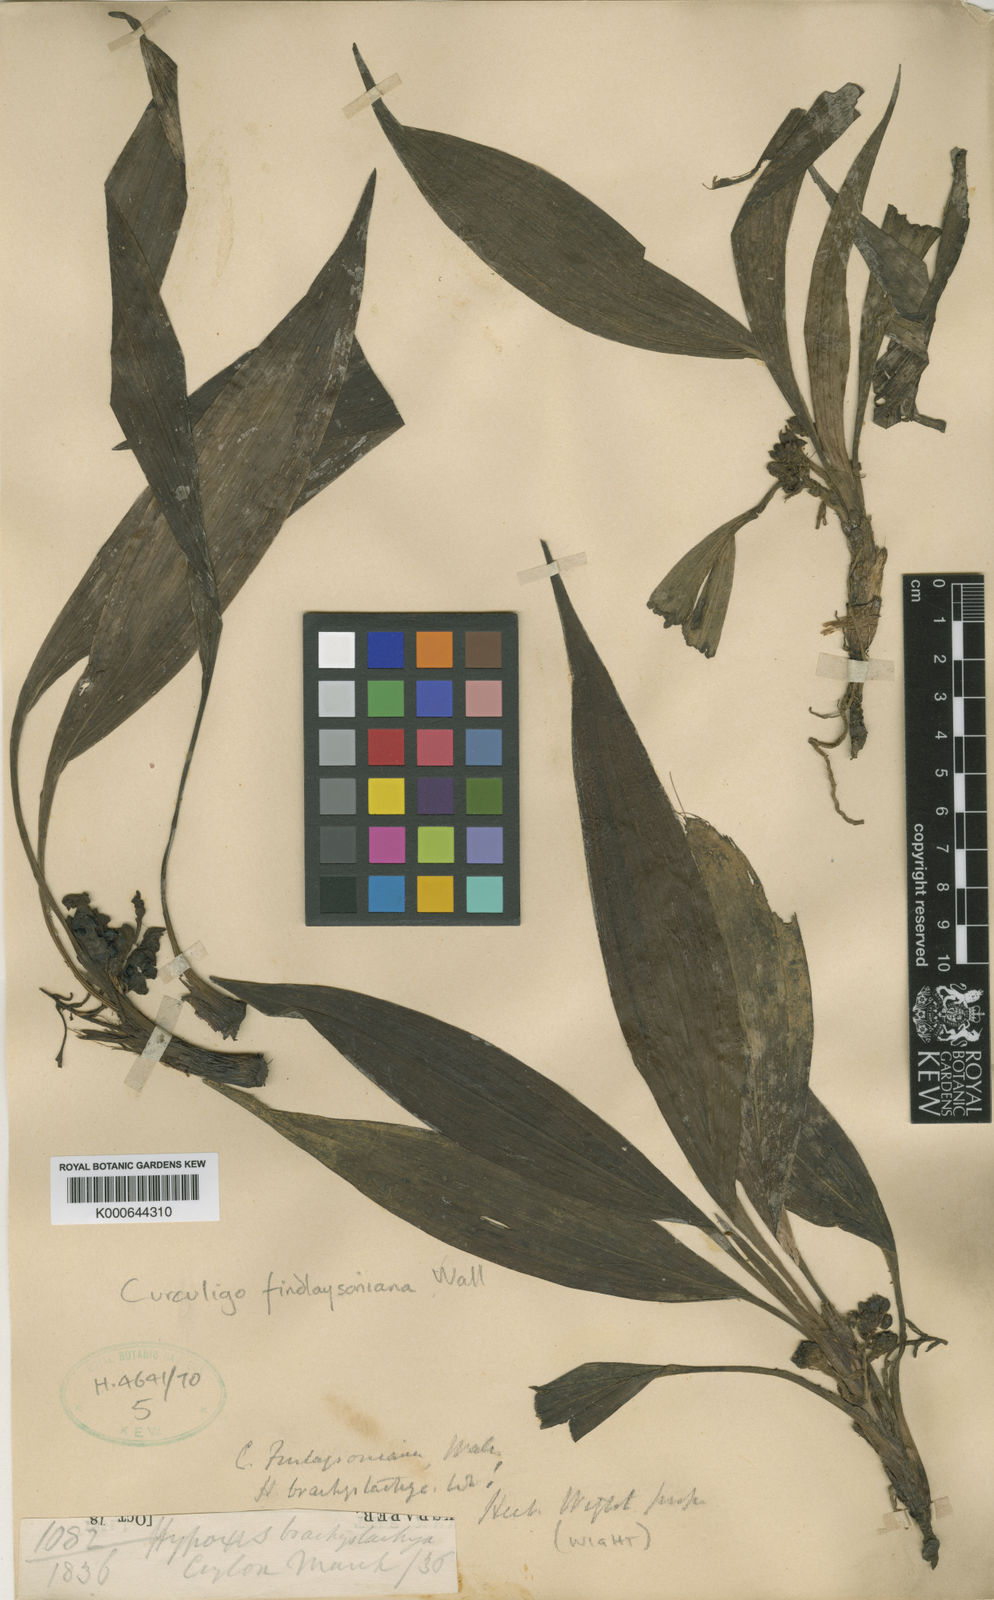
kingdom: Plantae
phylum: Tracheophyta
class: Liliopsida
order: Asparagales
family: Hypoxidaceae
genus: Curculigo
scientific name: Curculigo trichocarpa
